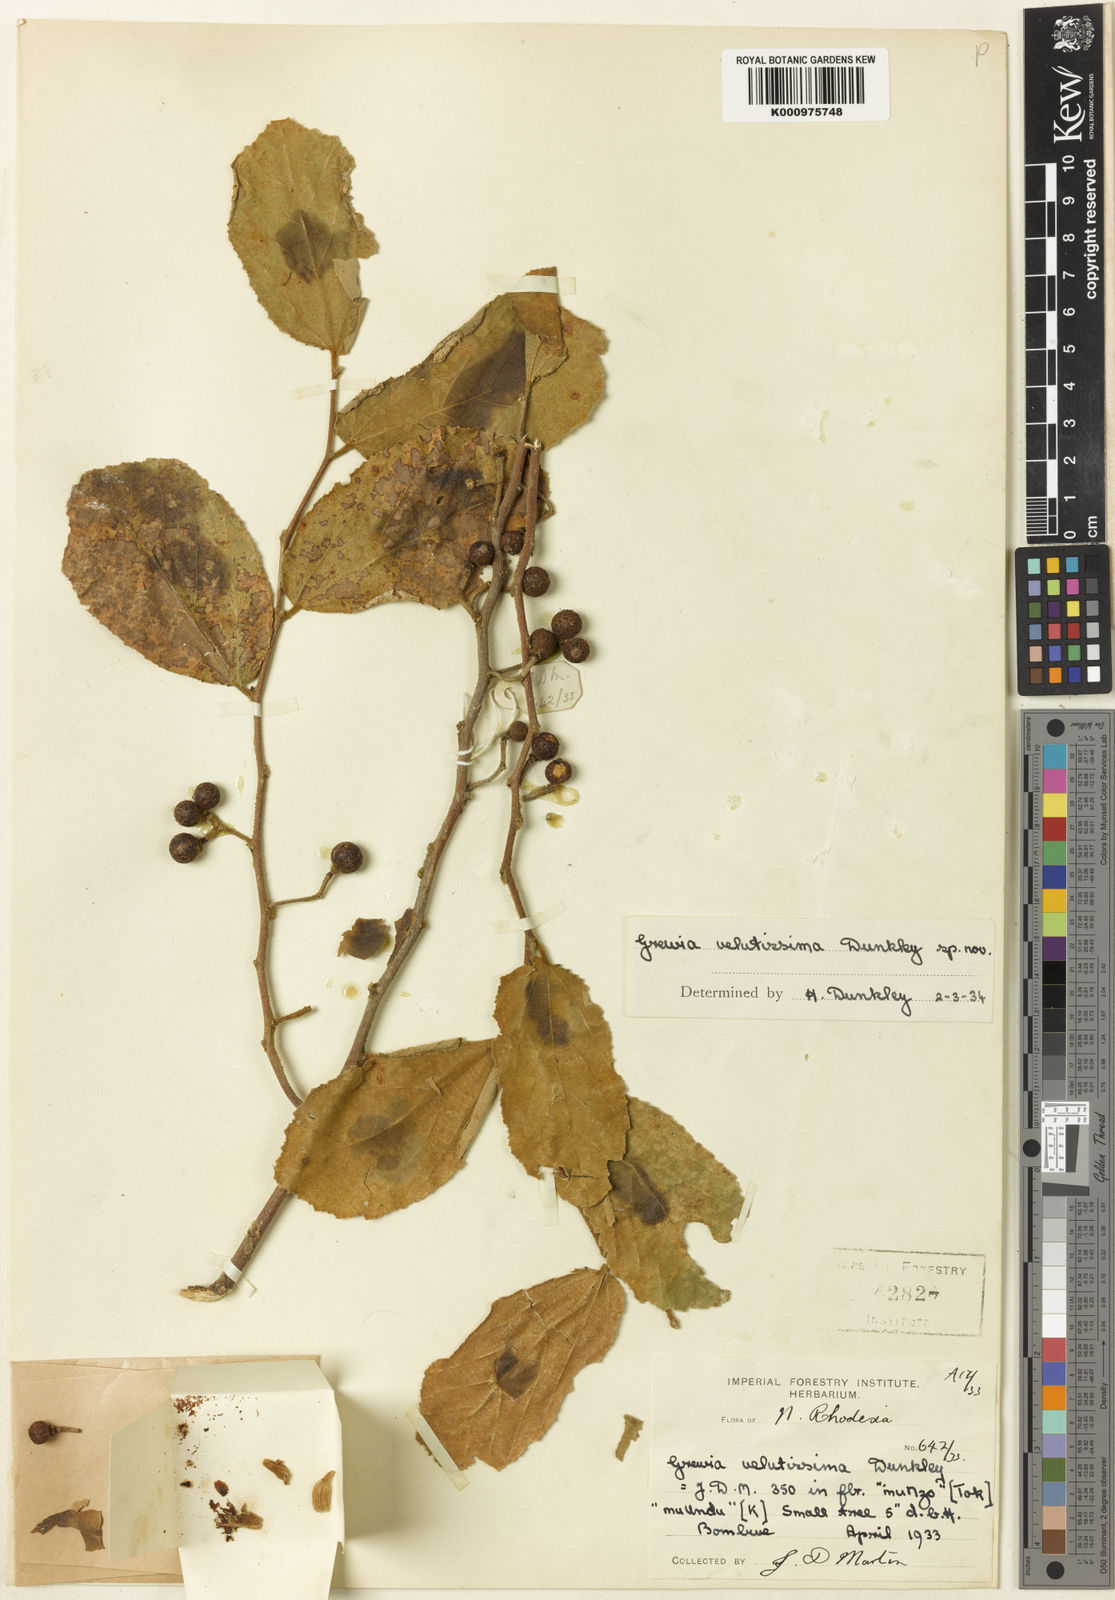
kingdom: Plantae
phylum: Tracheophyta
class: Magnoliopsida
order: Malvales
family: Malvaceae
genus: Grewia
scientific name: Grewia schinzii
